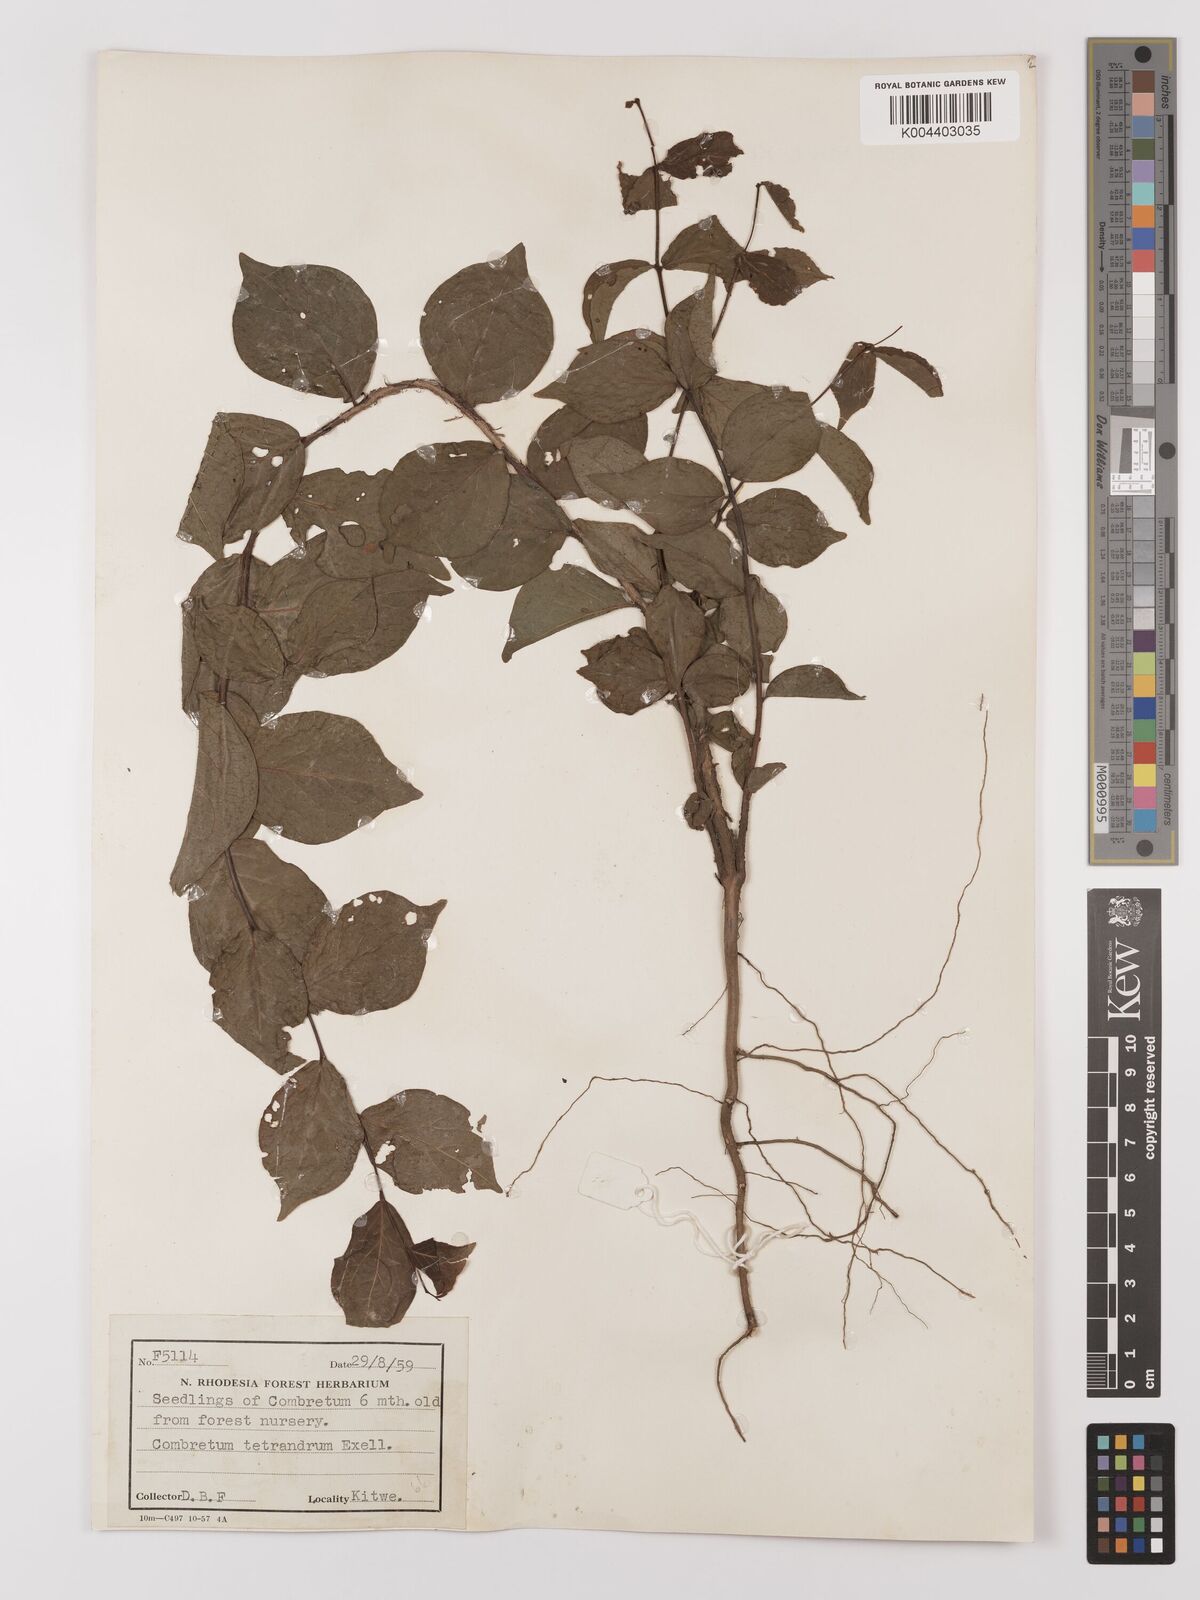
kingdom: Plantae
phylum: Tracheophyta
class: Magnoliopsida
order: Myrtales
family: Combretaceae
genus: Combretum
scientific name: Combretum tetrandrum
